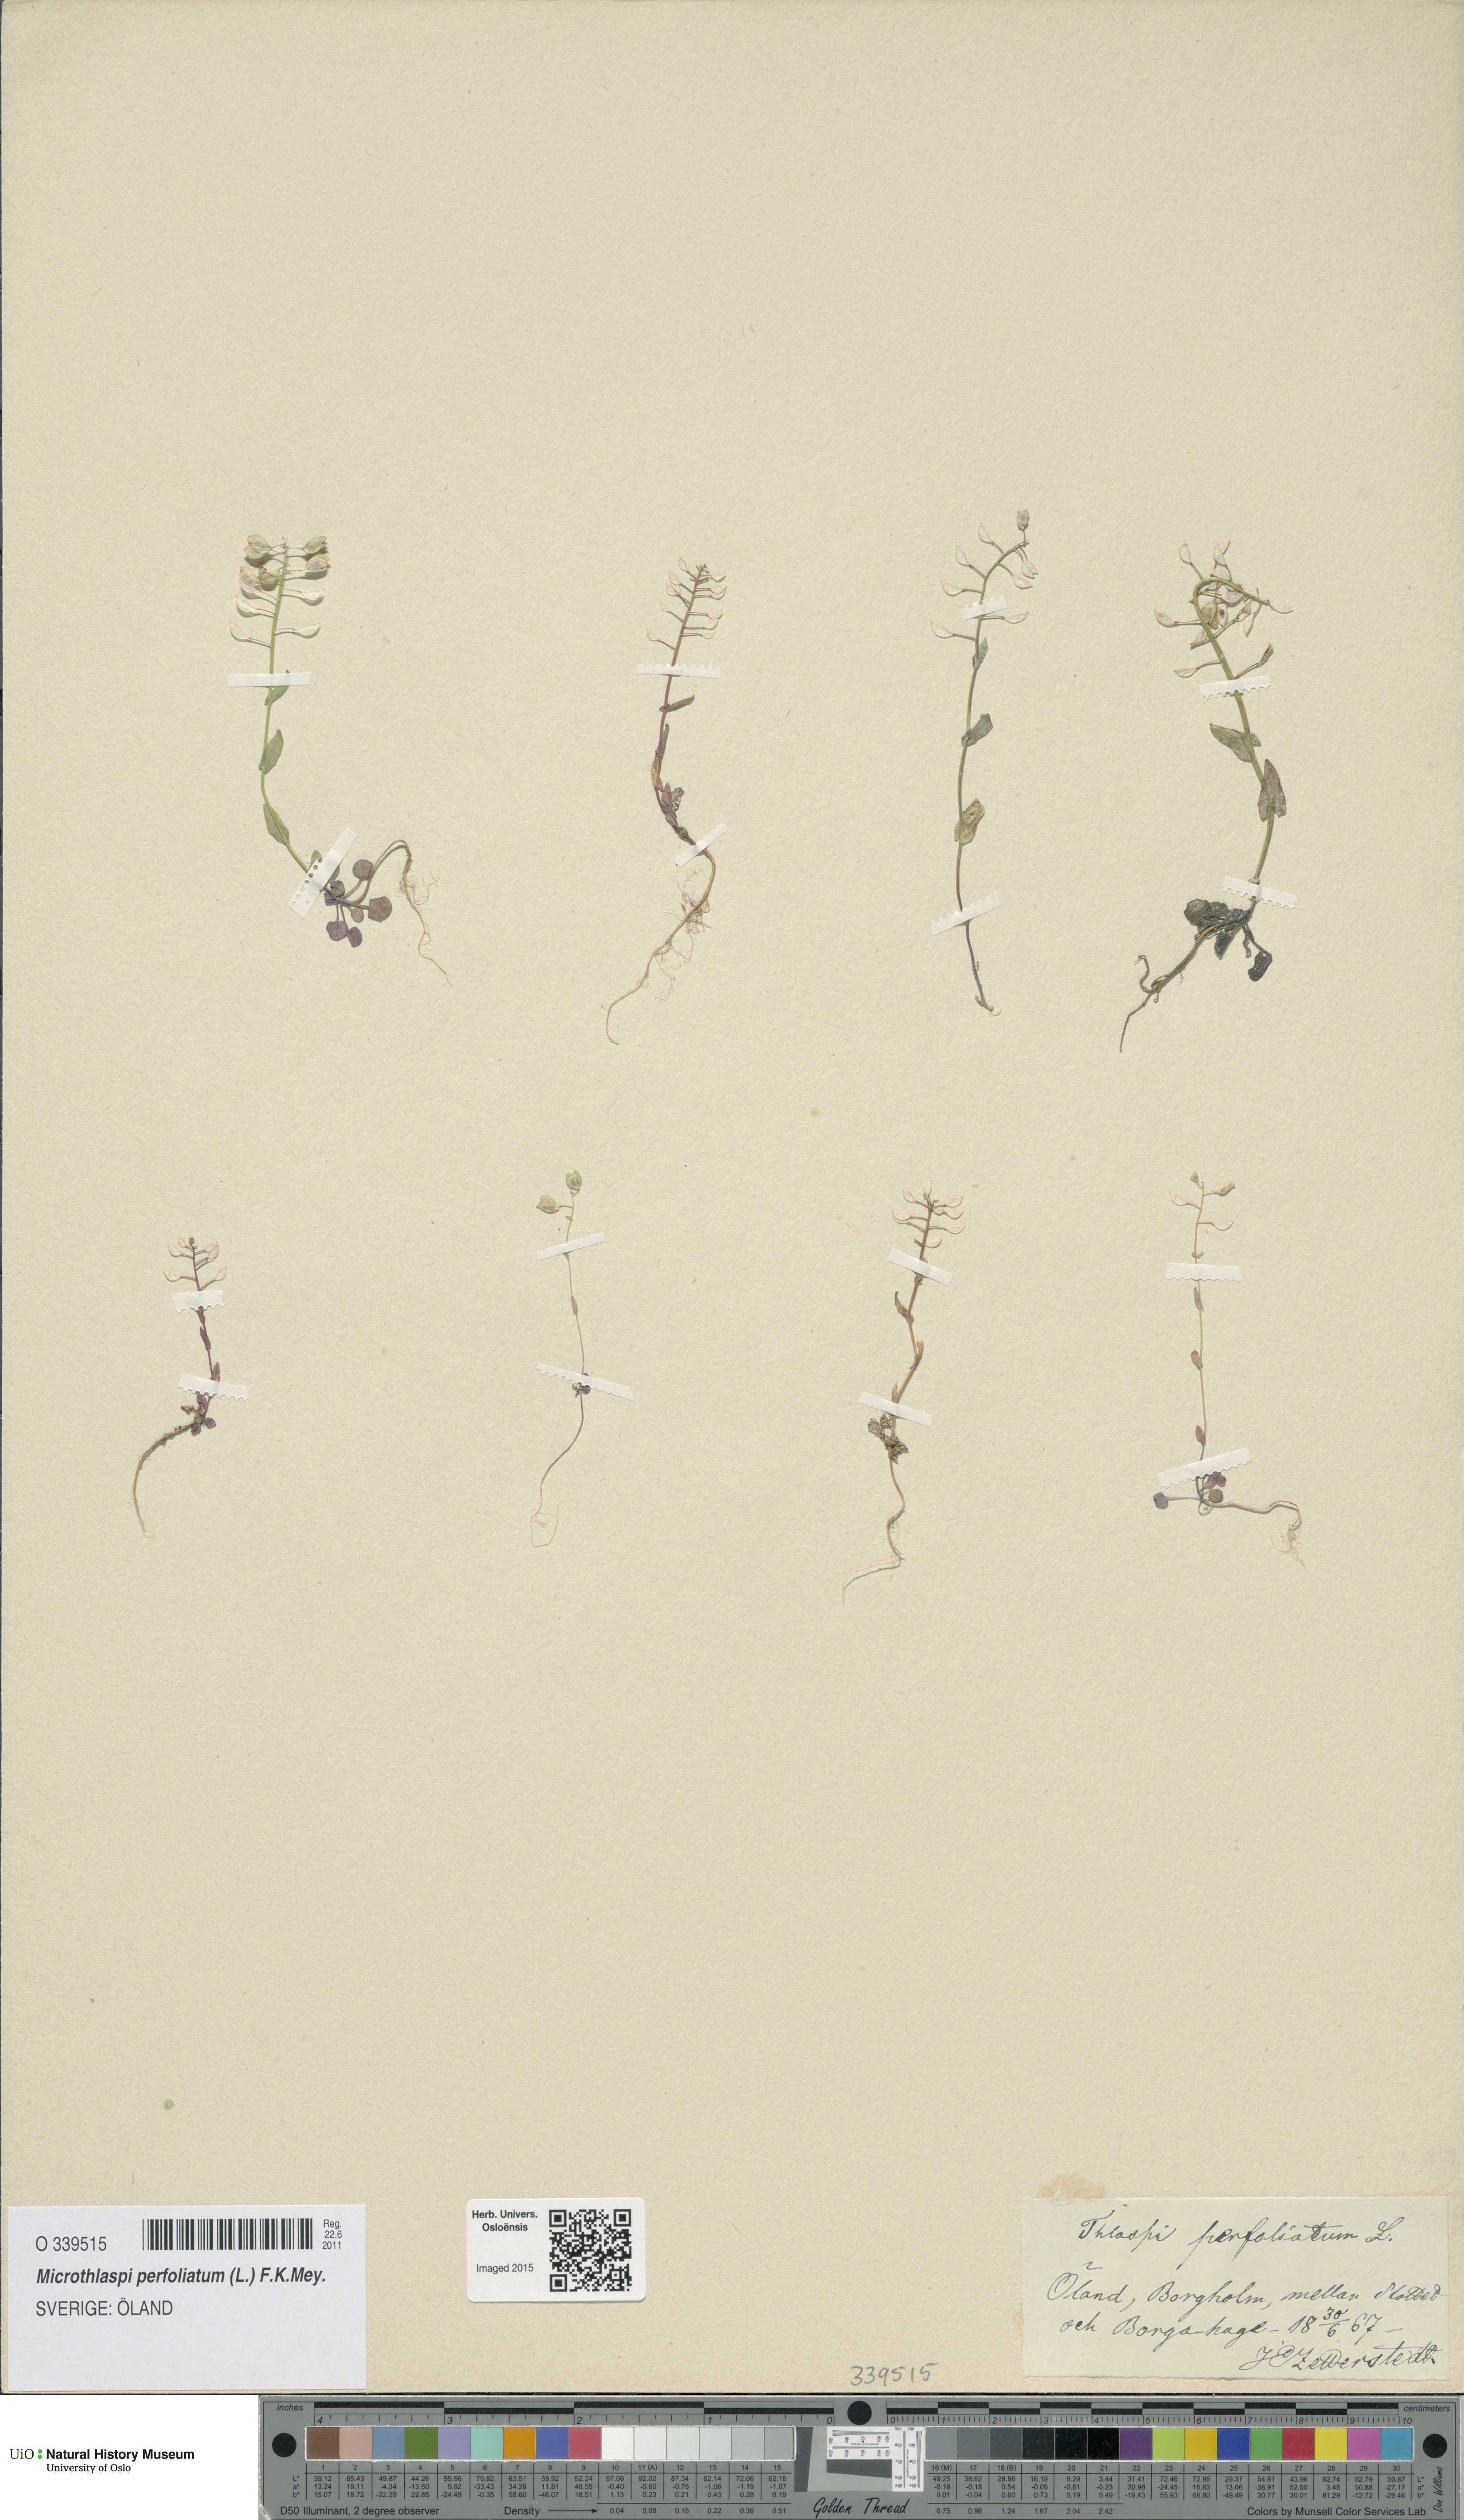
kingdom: Plantae
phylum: Tracheophyta
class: Magnoliopsida
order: Brassicales
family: Brassicaceae
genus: Noccaea
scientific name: Noccaea perfoliata
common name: Perfoliate pennycress
